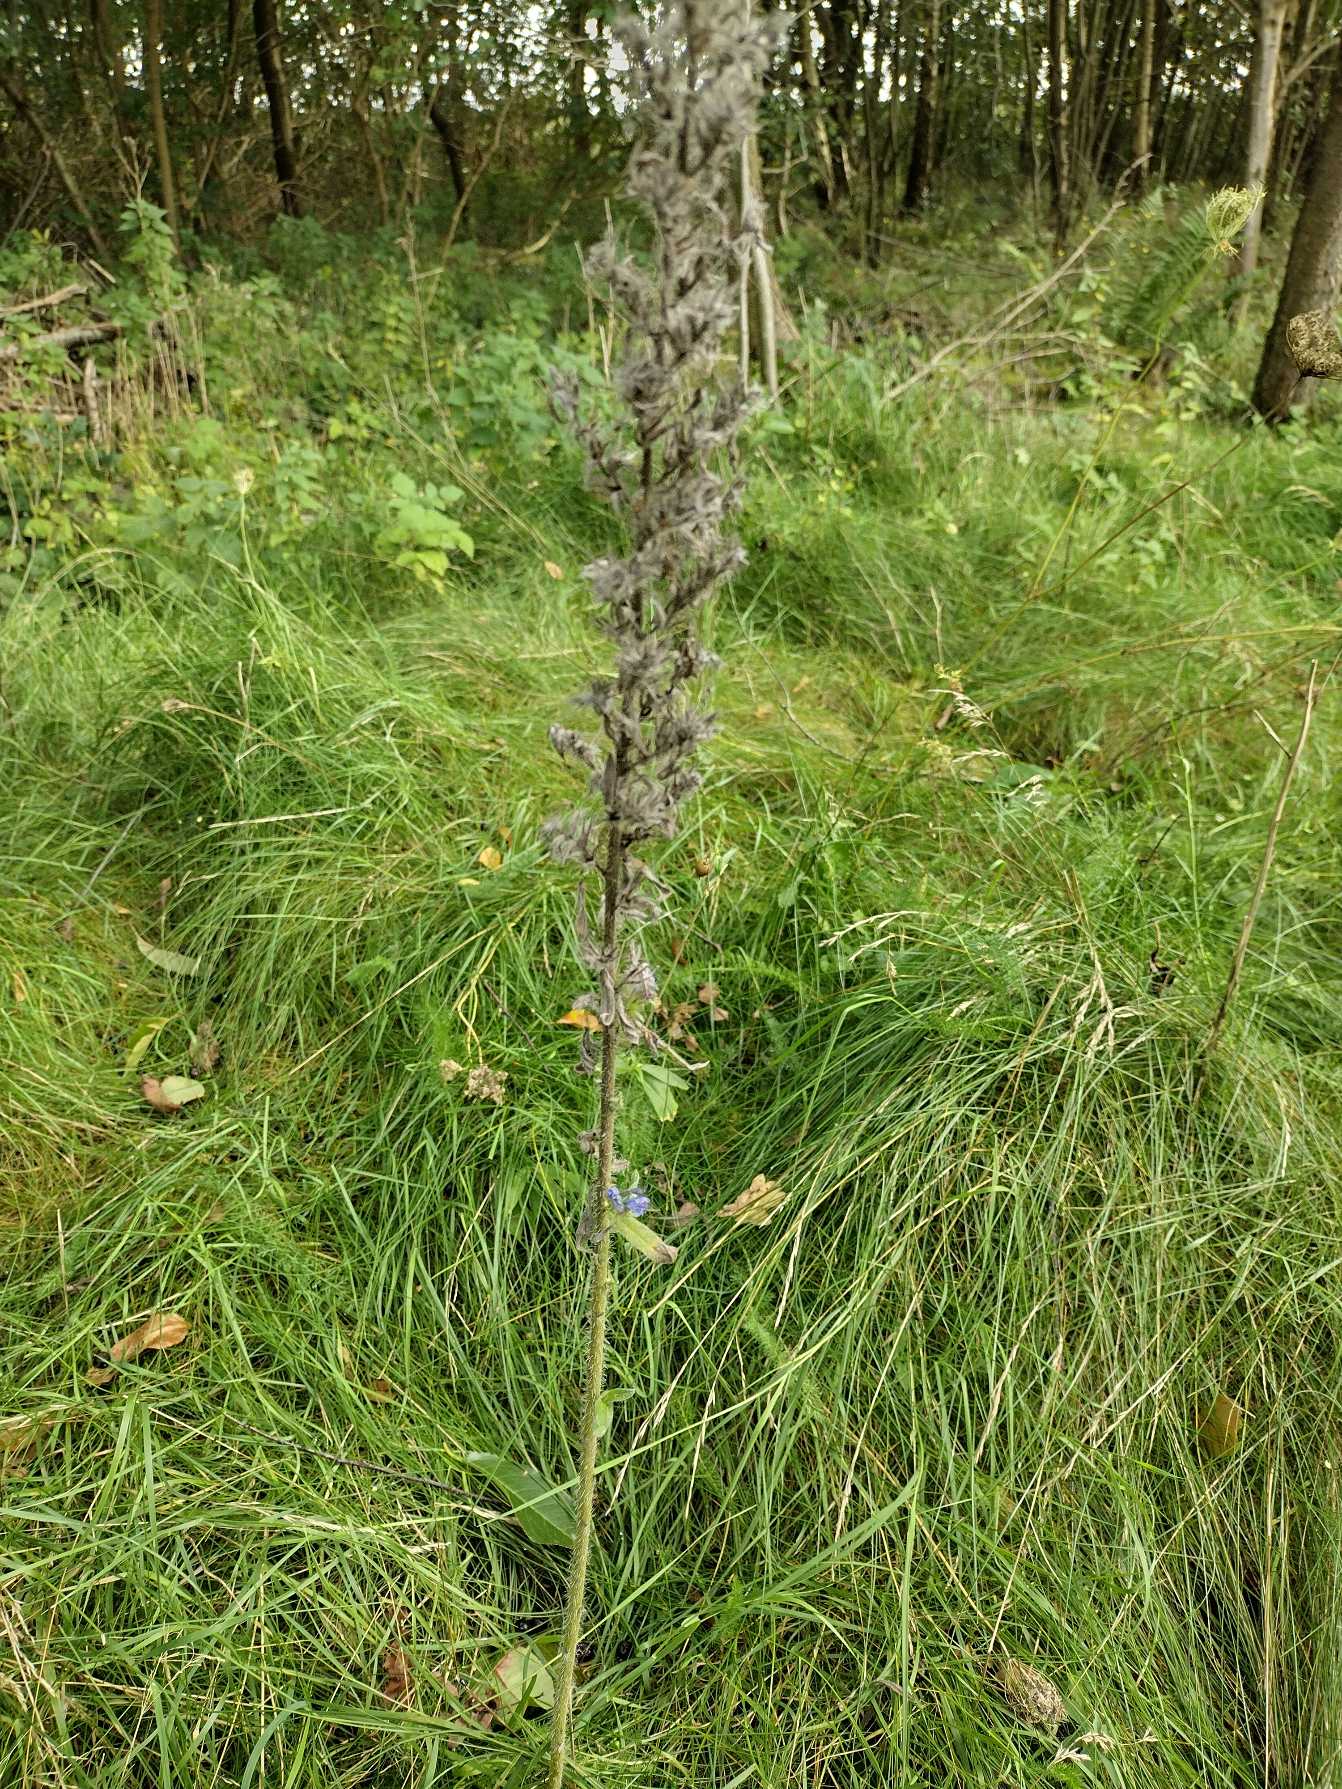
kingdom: Plantae
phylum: Tracheophyta
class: Magnoliopsida
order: Boraginales
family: Boraginaceae
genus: Echium
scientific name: Echium vulgare
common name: Slangehoved
